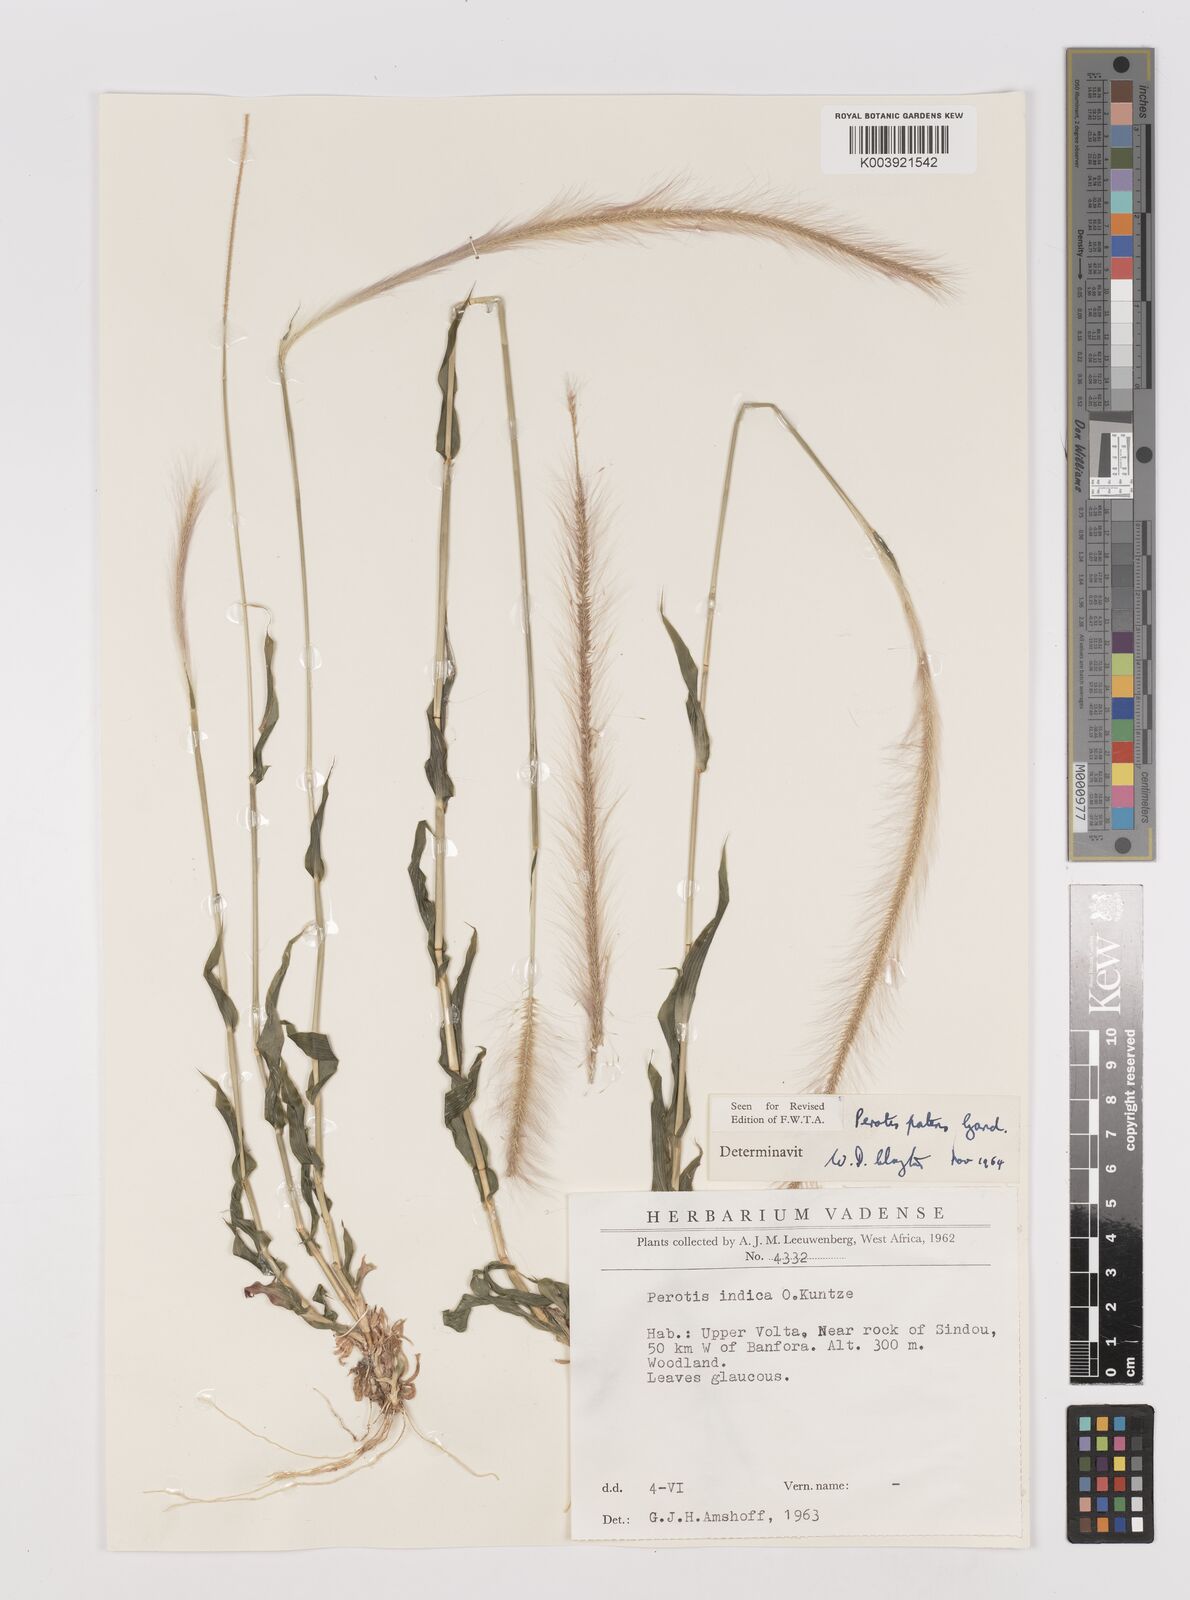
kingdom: Plantae
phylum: Tracheophyta
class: Liliopsida
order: Poales
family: Poaceae
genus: Perotis
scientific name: Perotis patens
